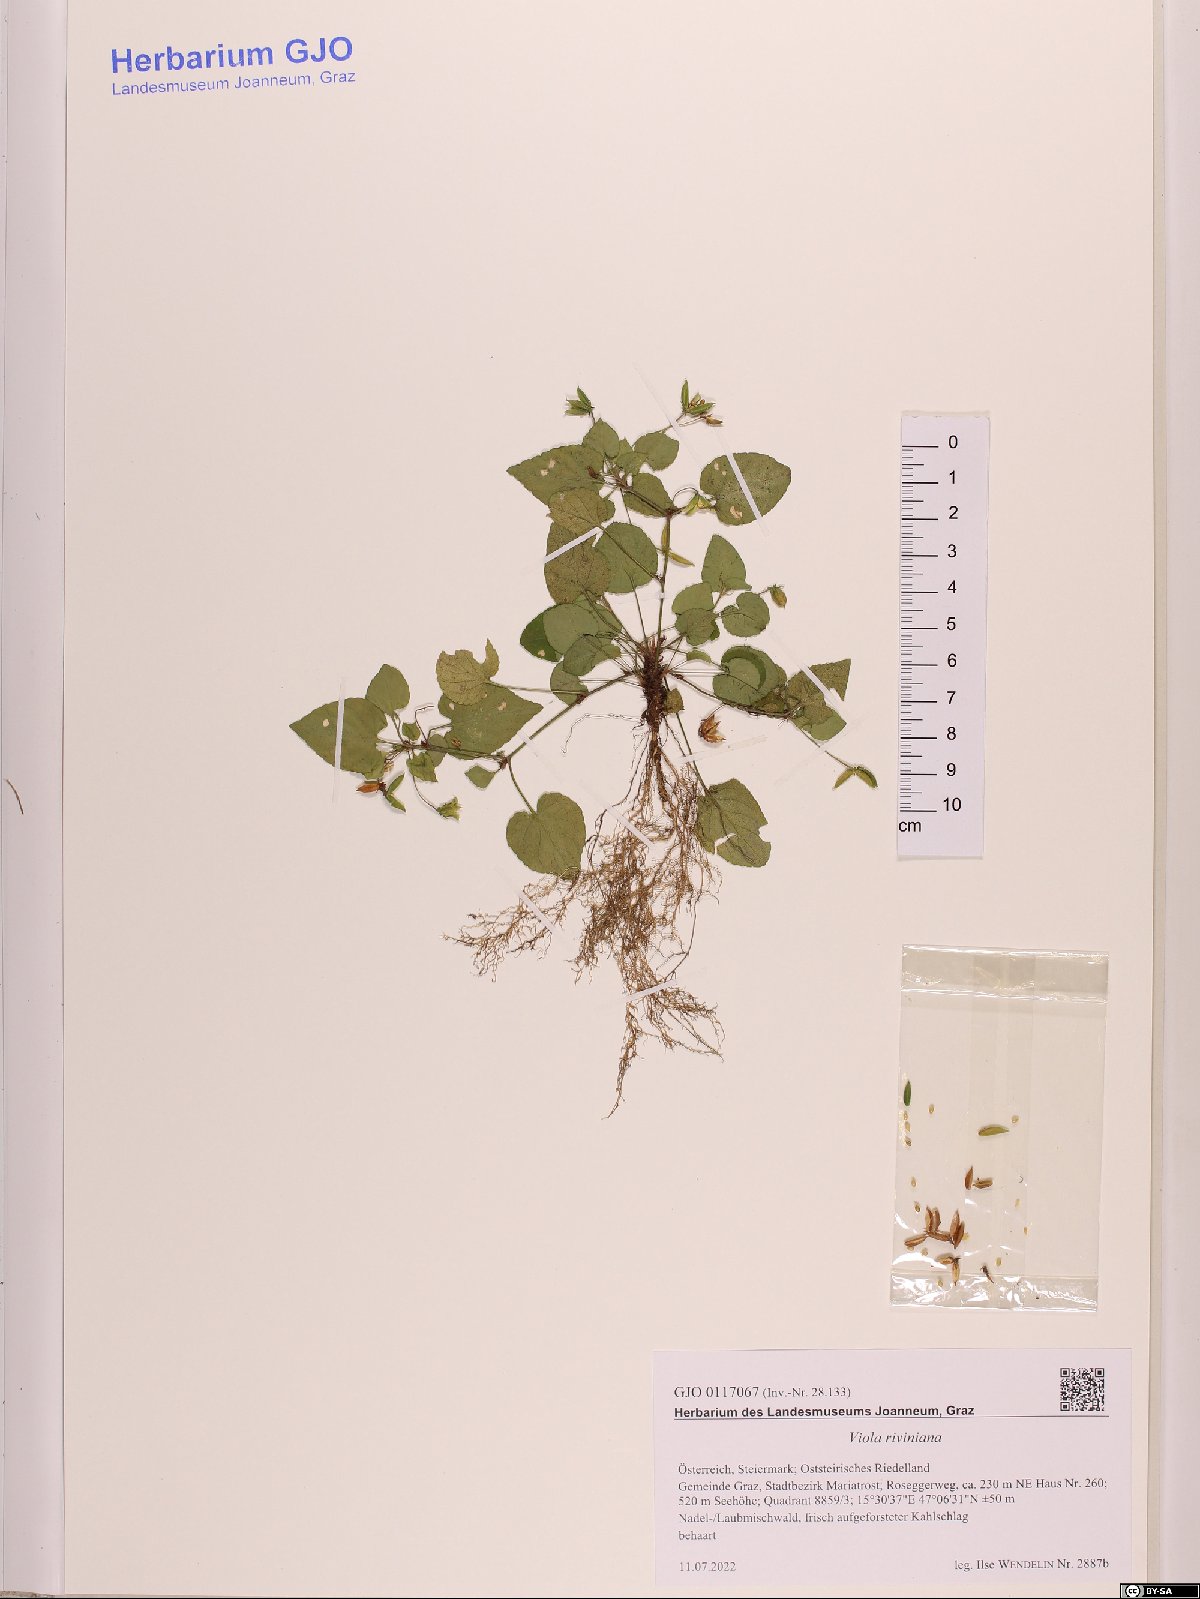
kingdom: Plantae
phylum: Tracheophyta
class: Magnoliopsida
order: Malpighiales
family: Violaceae
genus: Viola
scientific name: Viola riviniana
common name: Common dog-violet
